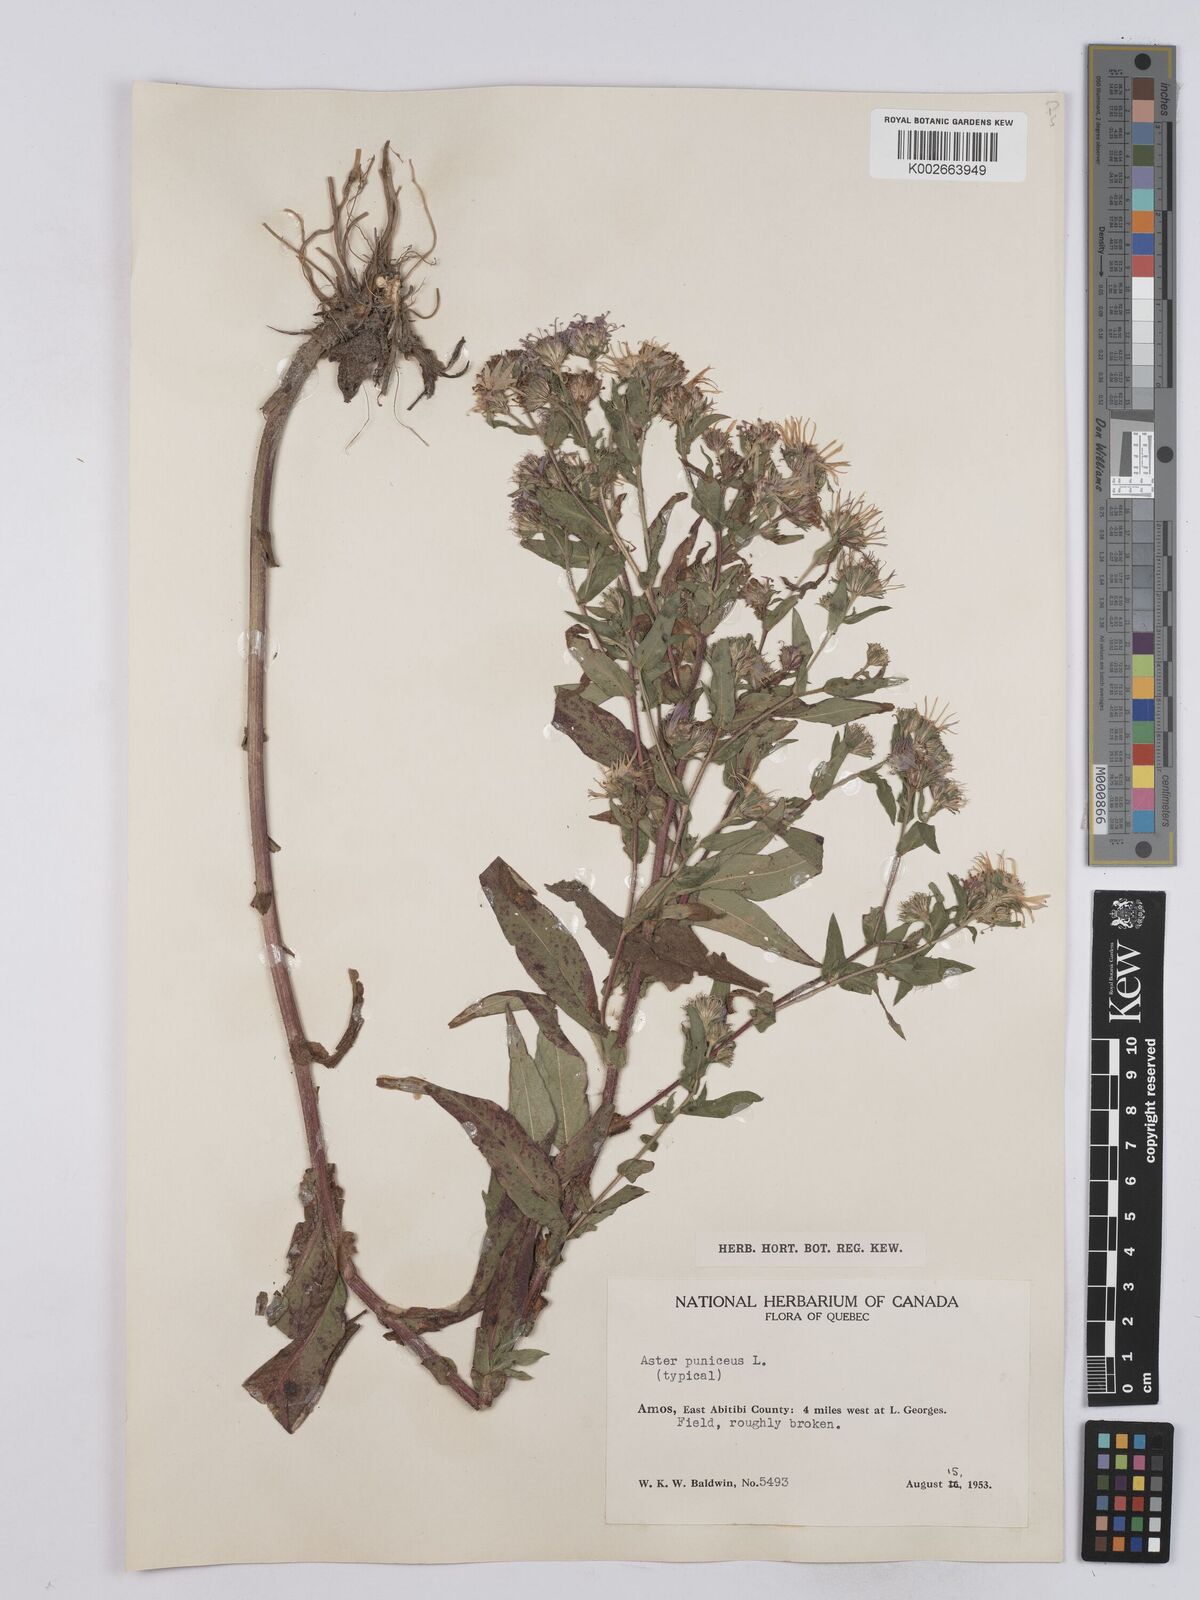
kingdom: Plantae
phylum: Tracheophyta
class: Magnoliopsida
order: Asterales
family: Asteraceae
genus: Symphyotrichum
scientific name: Symphyotrichum puniceum
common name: Bog aster
